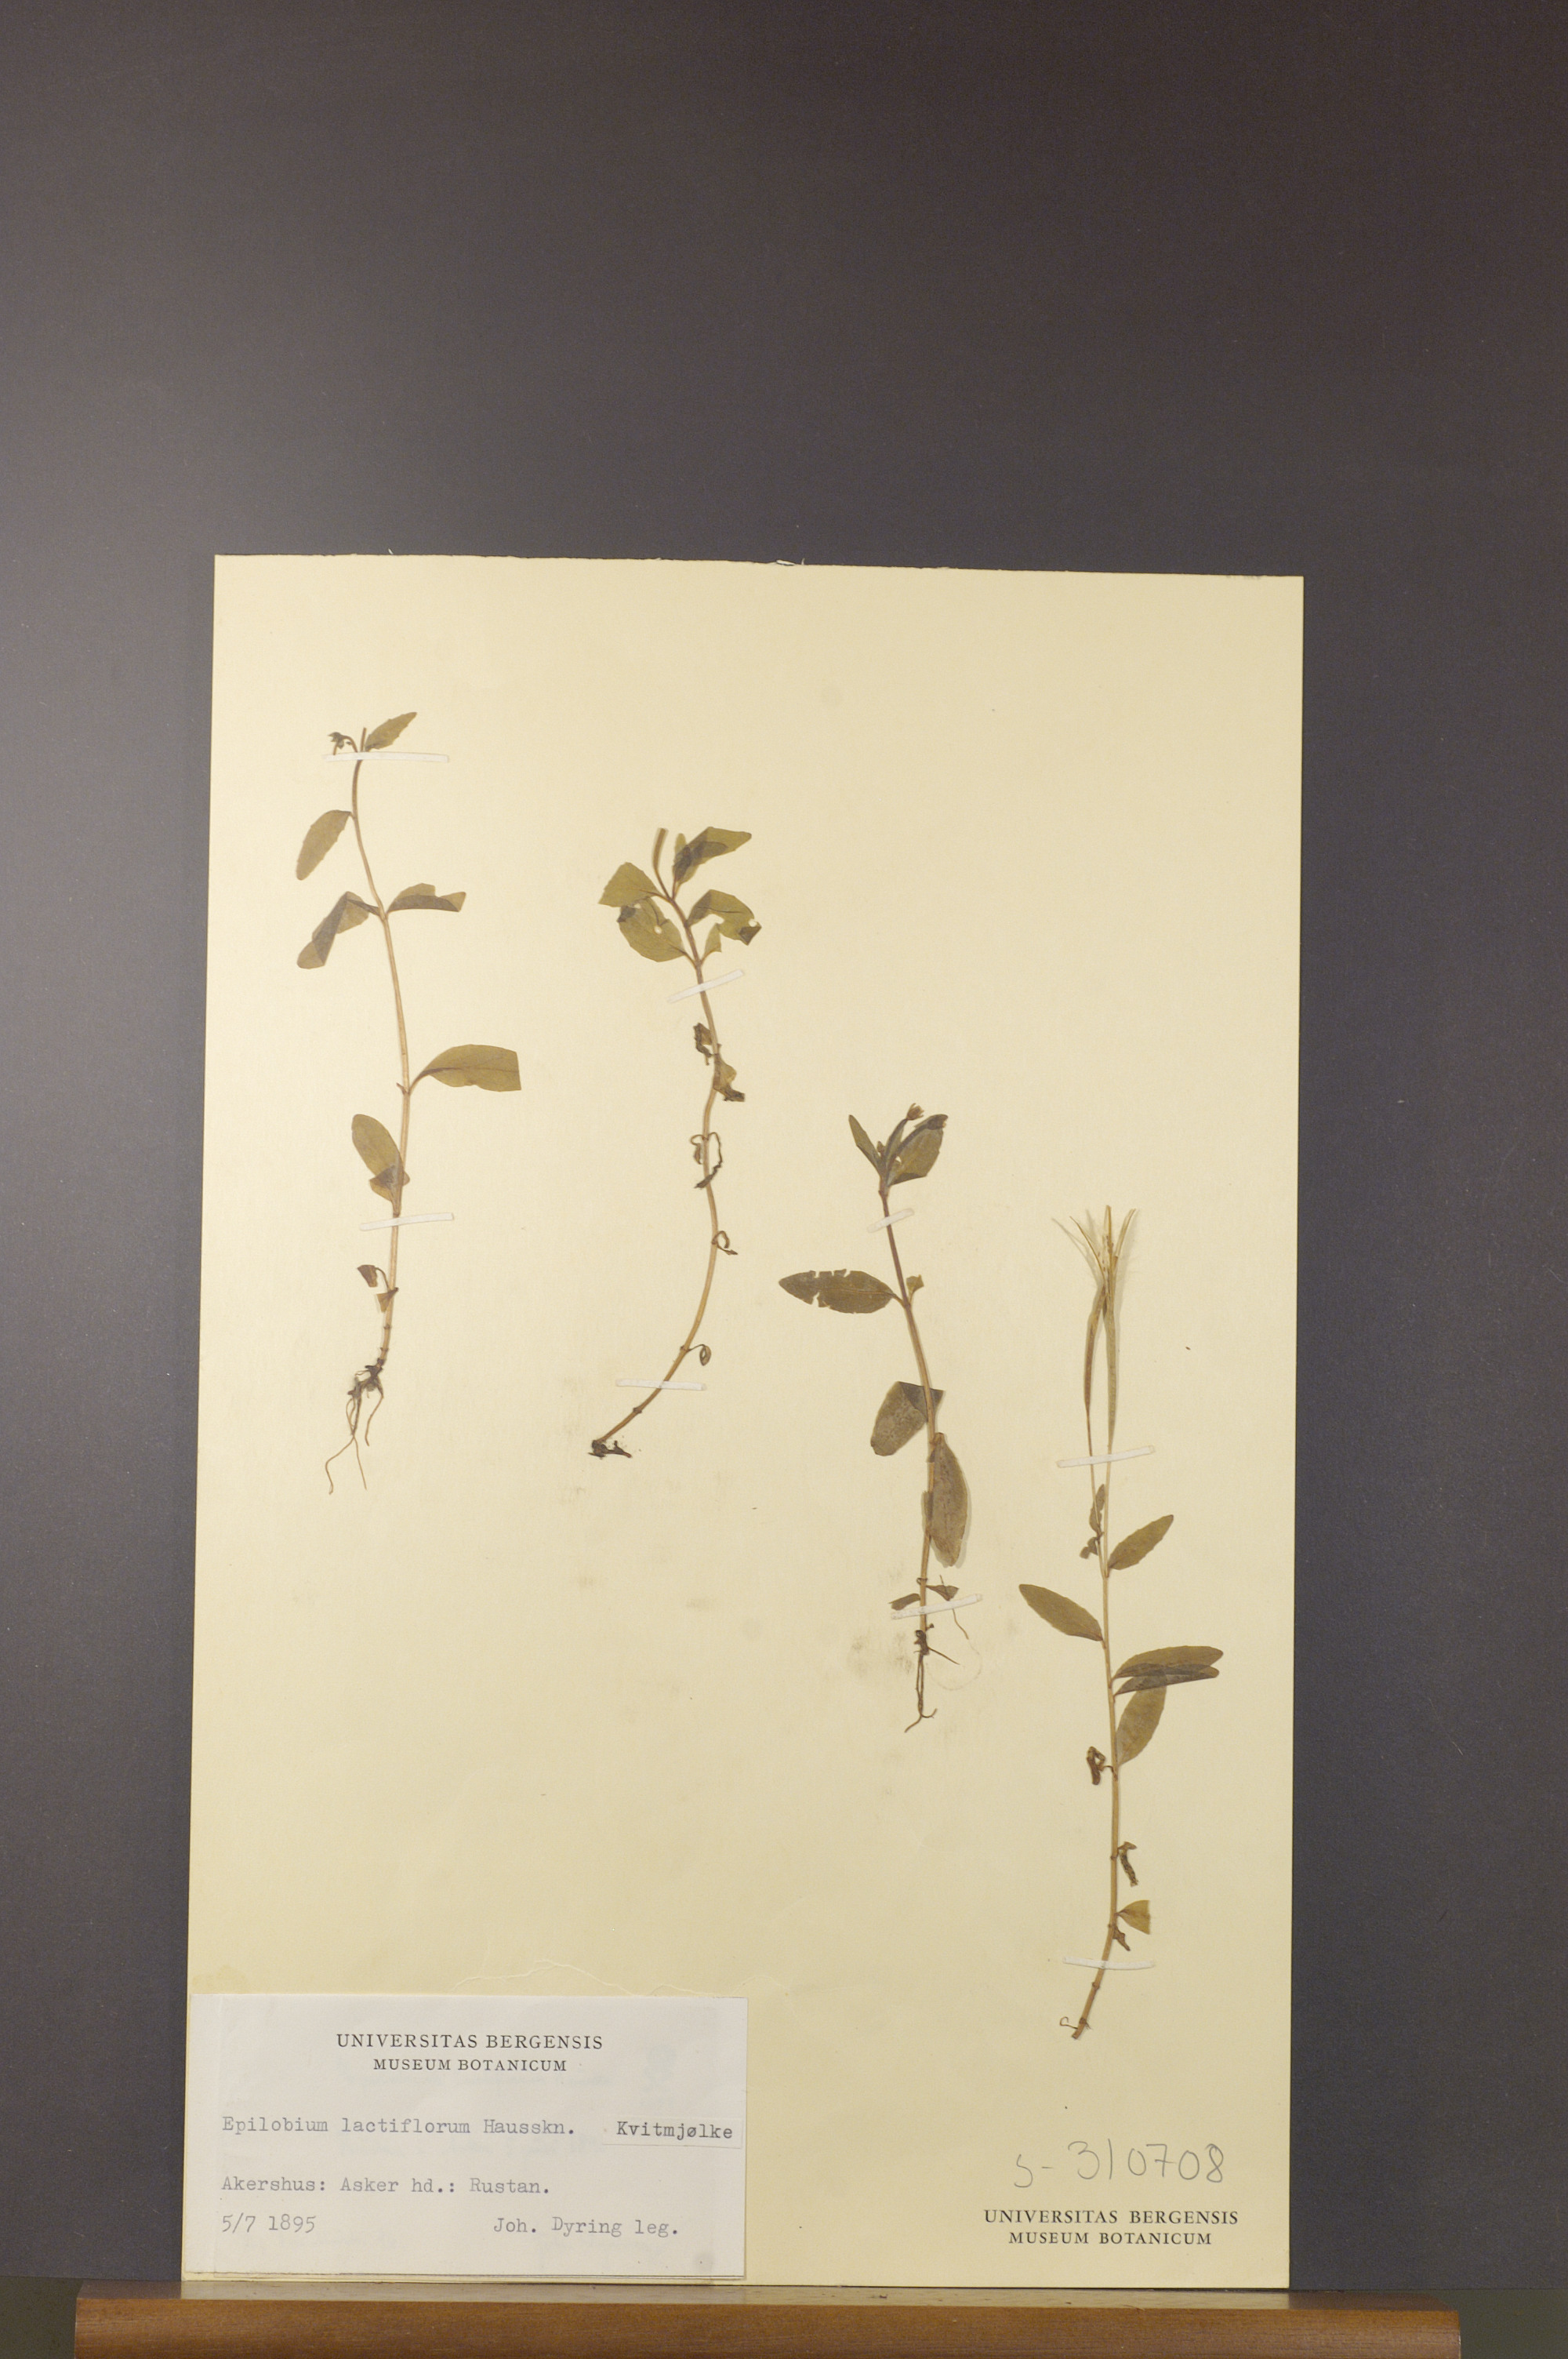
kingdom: Plantae
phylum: Tracheophyta
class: Magnoliopsida
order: Myrtales
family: Onagraceae
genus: Epilobium
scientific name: Epilobium lactiflorum
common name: Milkflower willowherb
